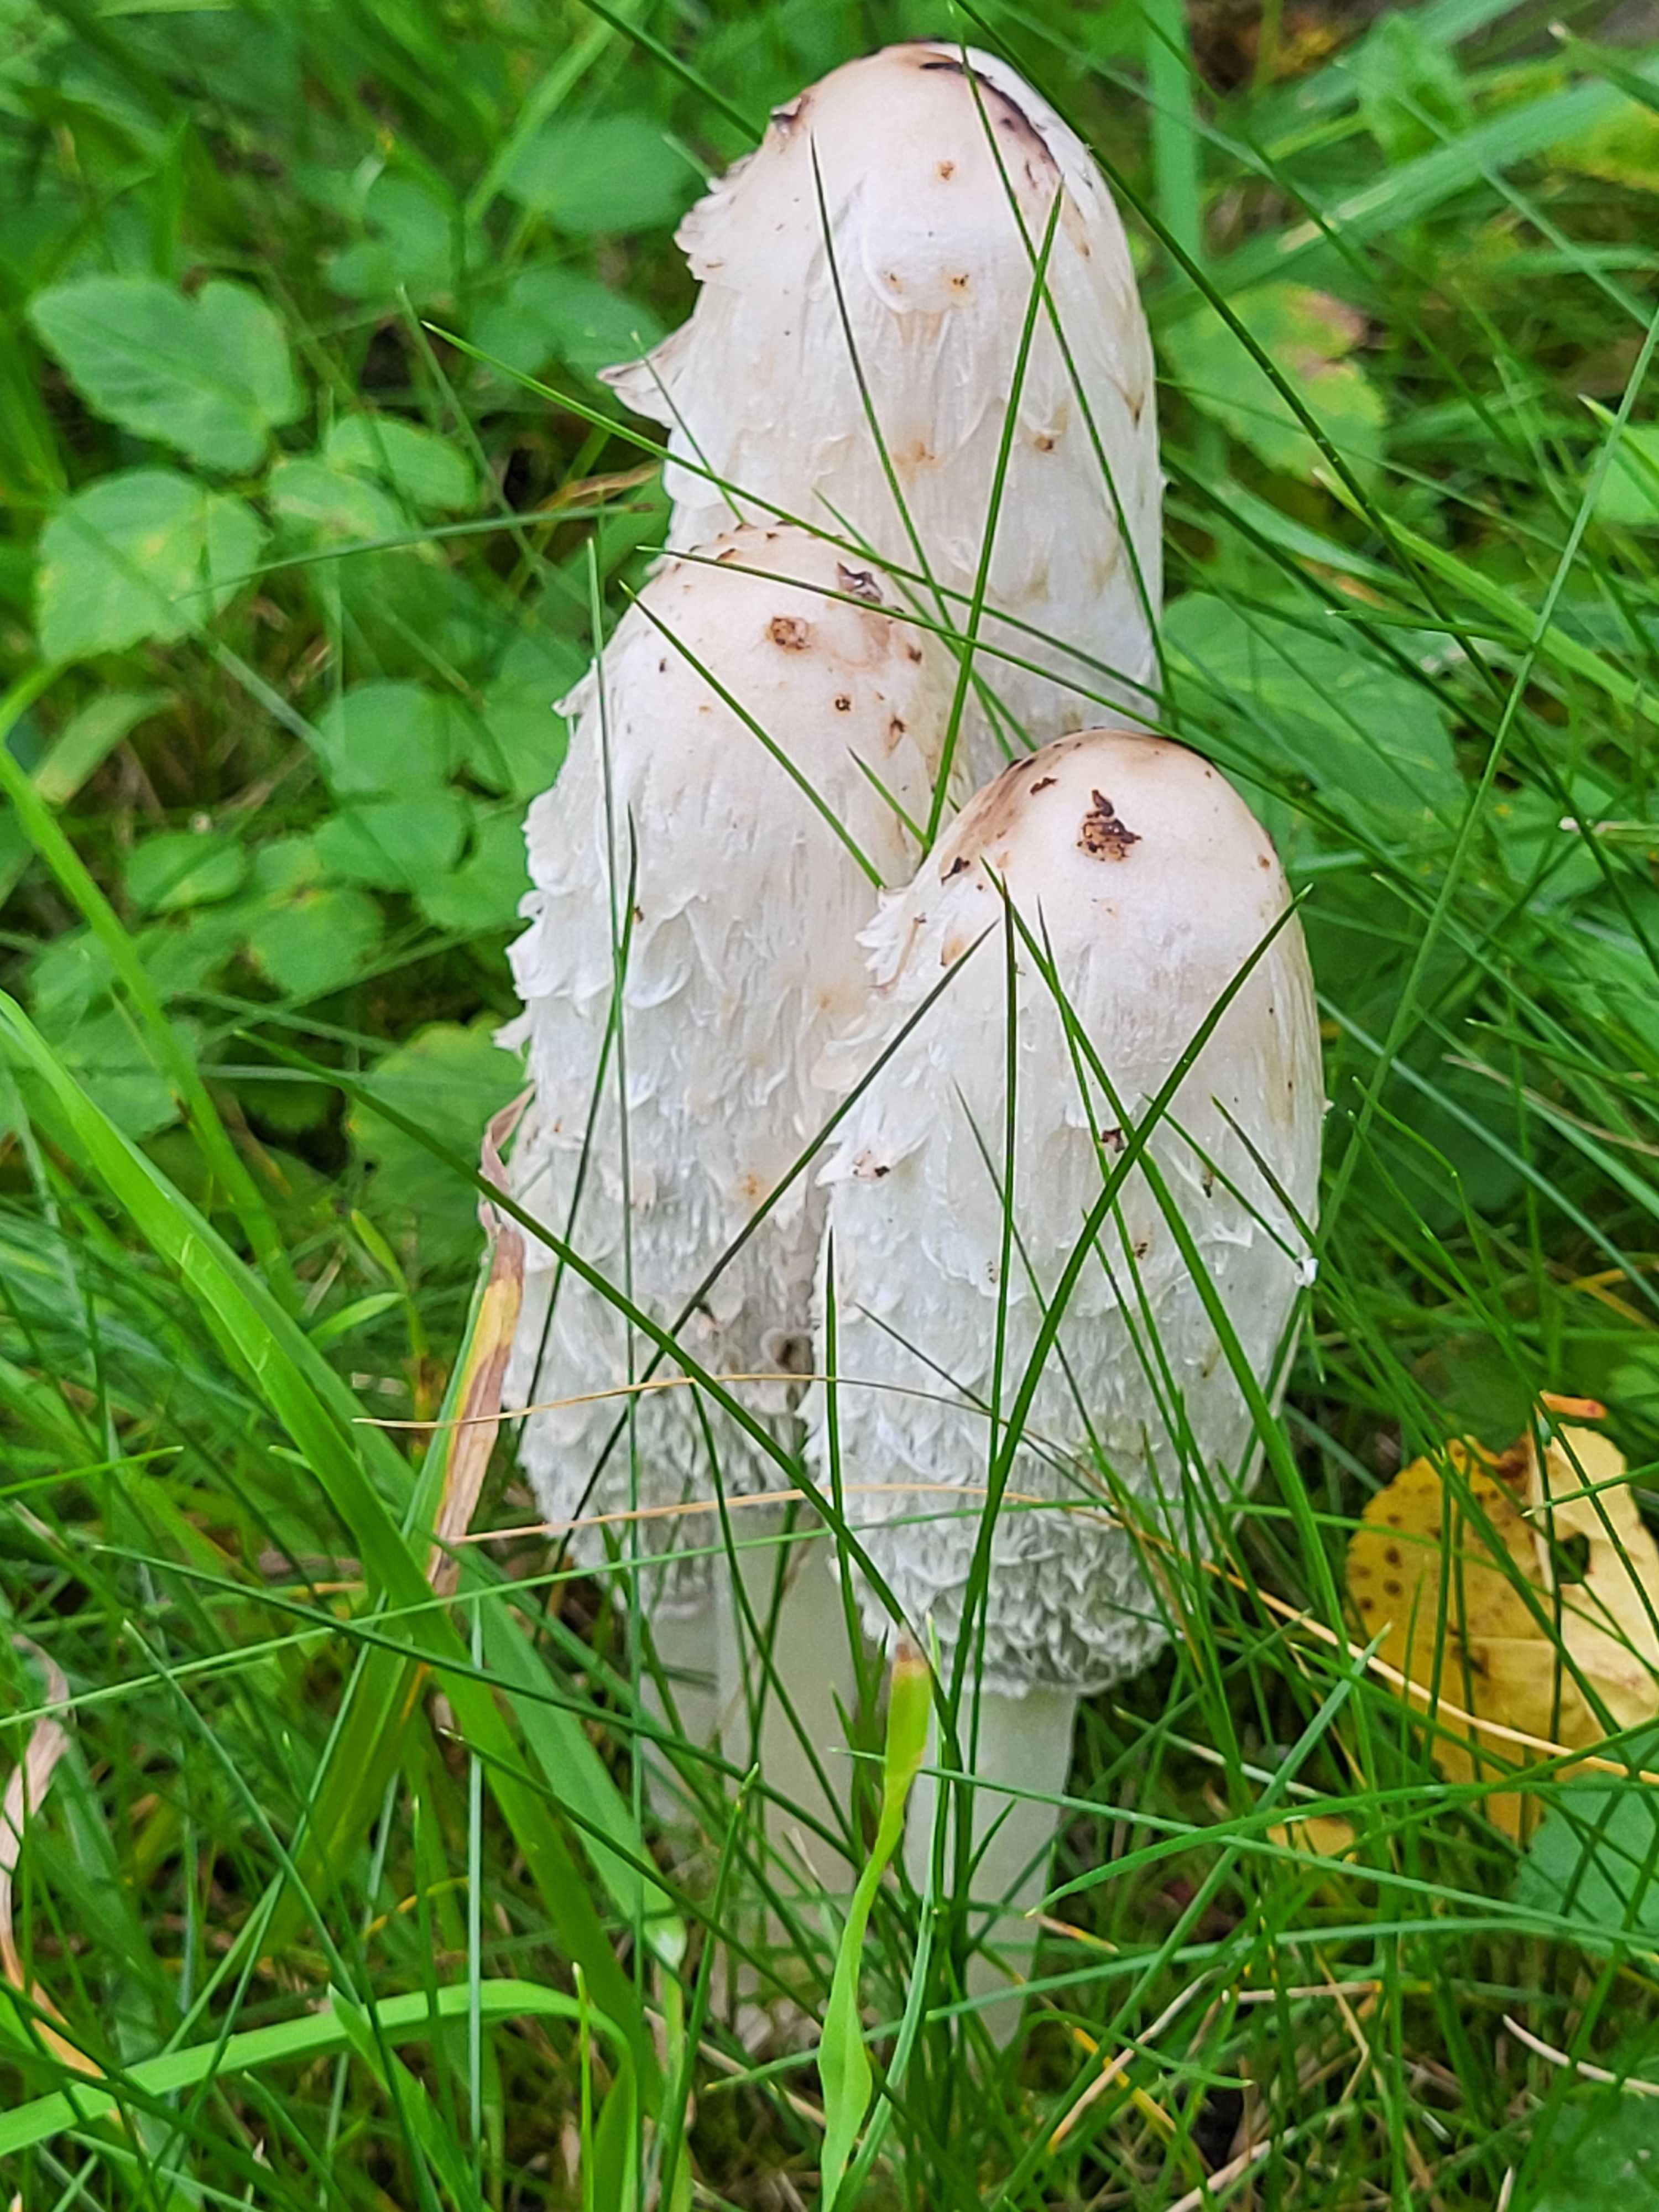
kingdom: Fungi
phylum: Basidiomycota
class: Agaricomycetes
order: Agaricales
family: Agaricaceae
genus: Coprinus
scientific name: Coprinus comatus
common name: stor parykhat
